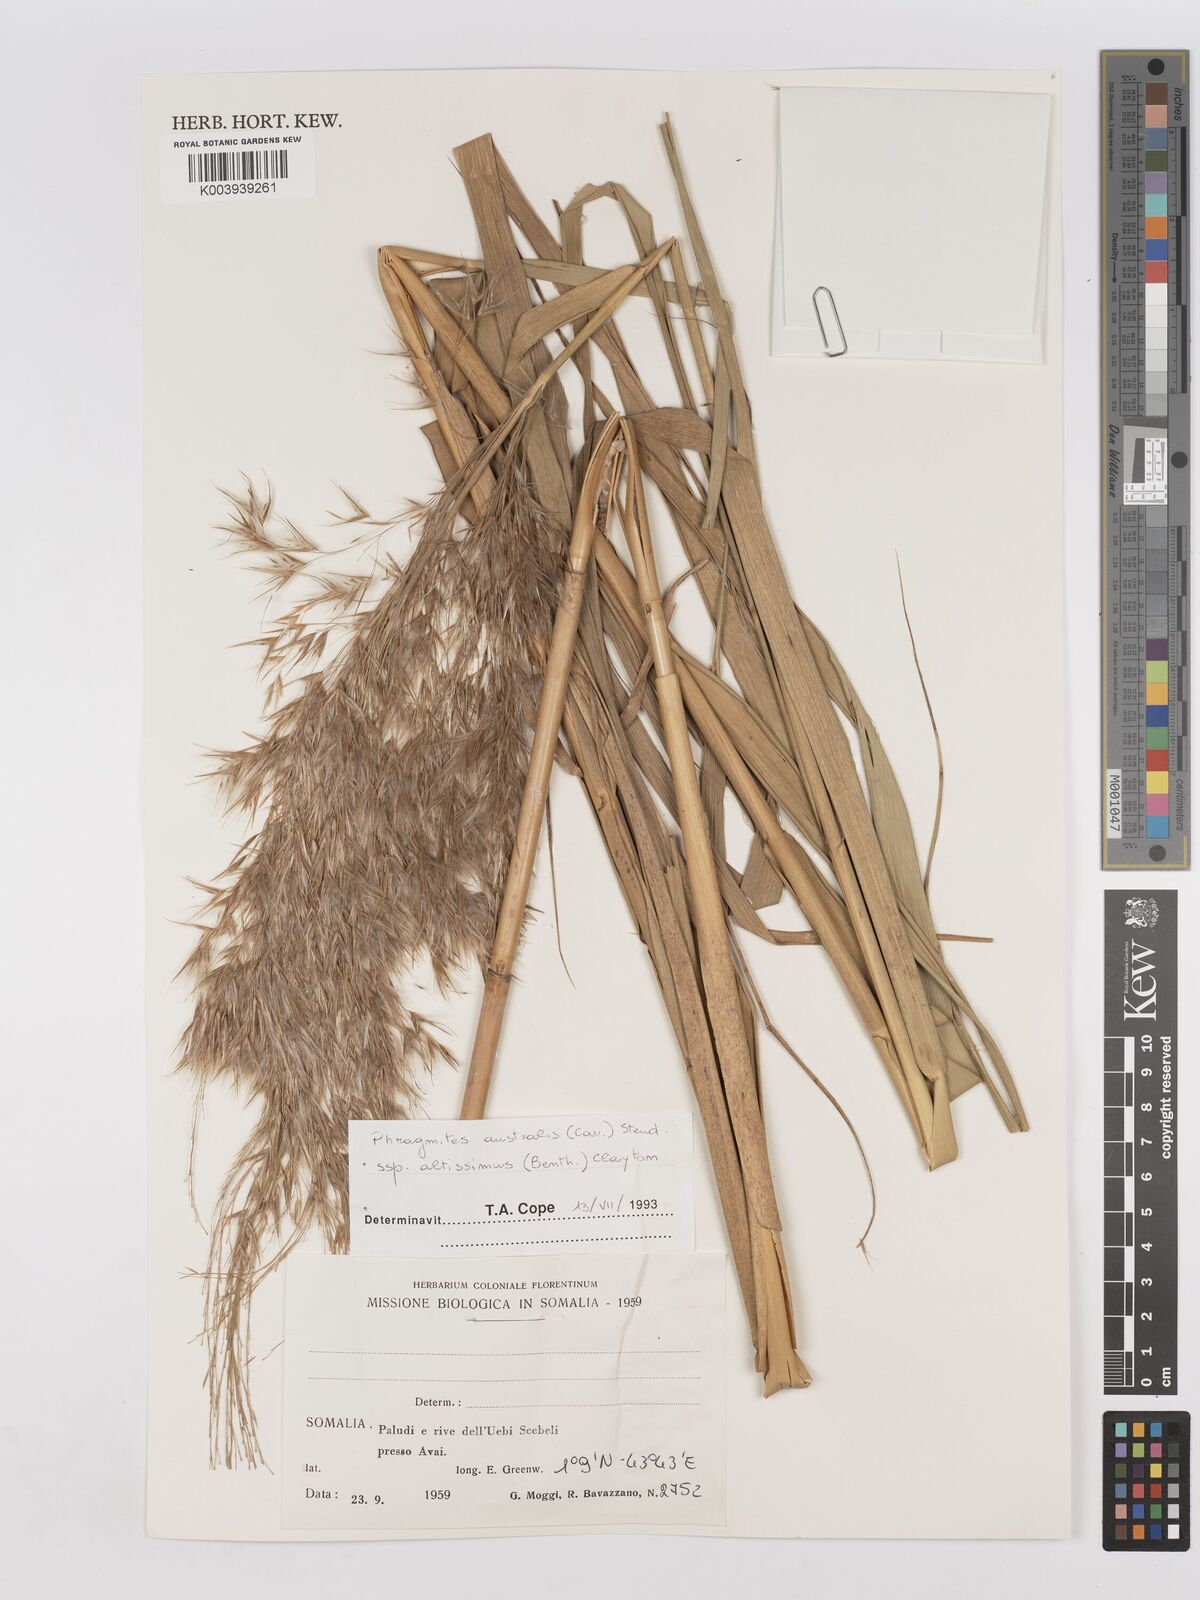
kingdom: Plantae
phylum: Tracheophyta
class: Liliopsida
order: Poales
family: Poaceae
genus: Phragmites
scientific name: Phragmites karka
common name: Tropical reed
